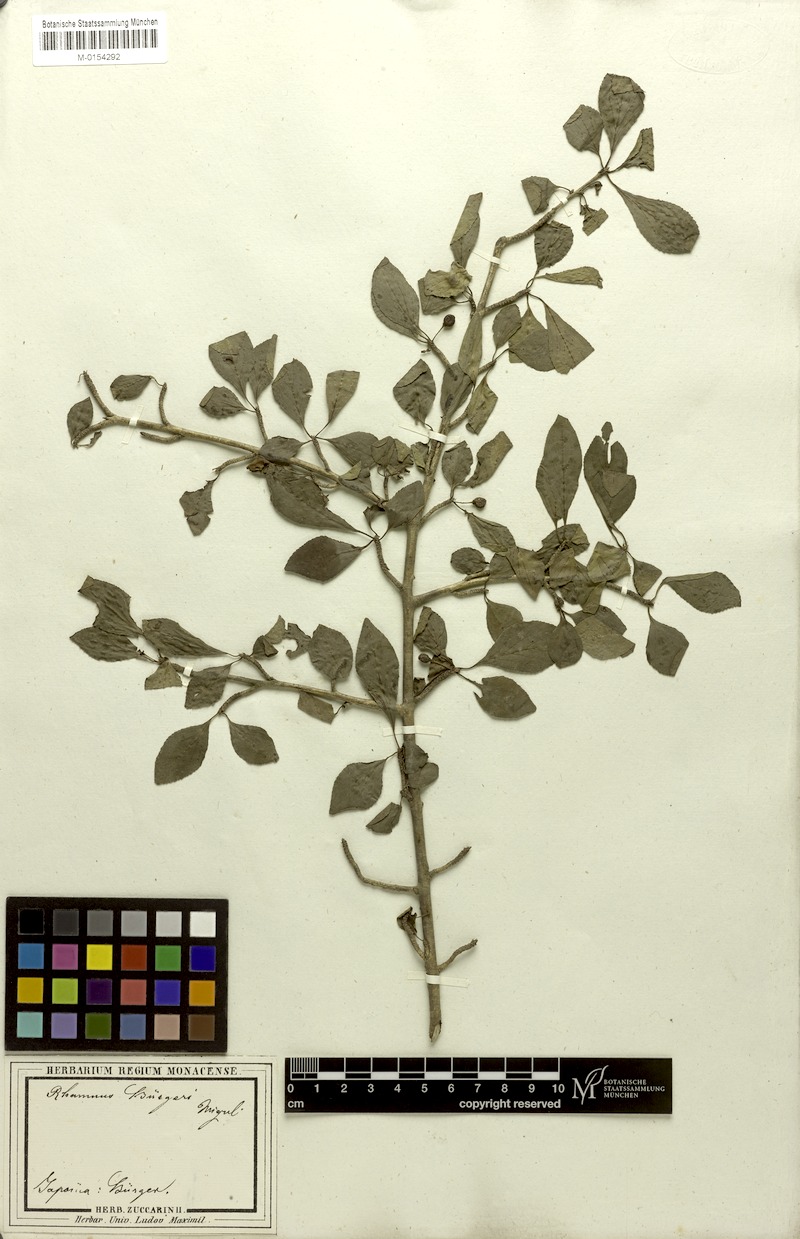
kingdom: Plantae
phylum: Tracheophyta
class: Magnoliopsida
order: Rosales
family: Rhamnaceae
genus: Rhamnus
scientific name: Rhamnus japonica
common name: Japanese buckthorn
